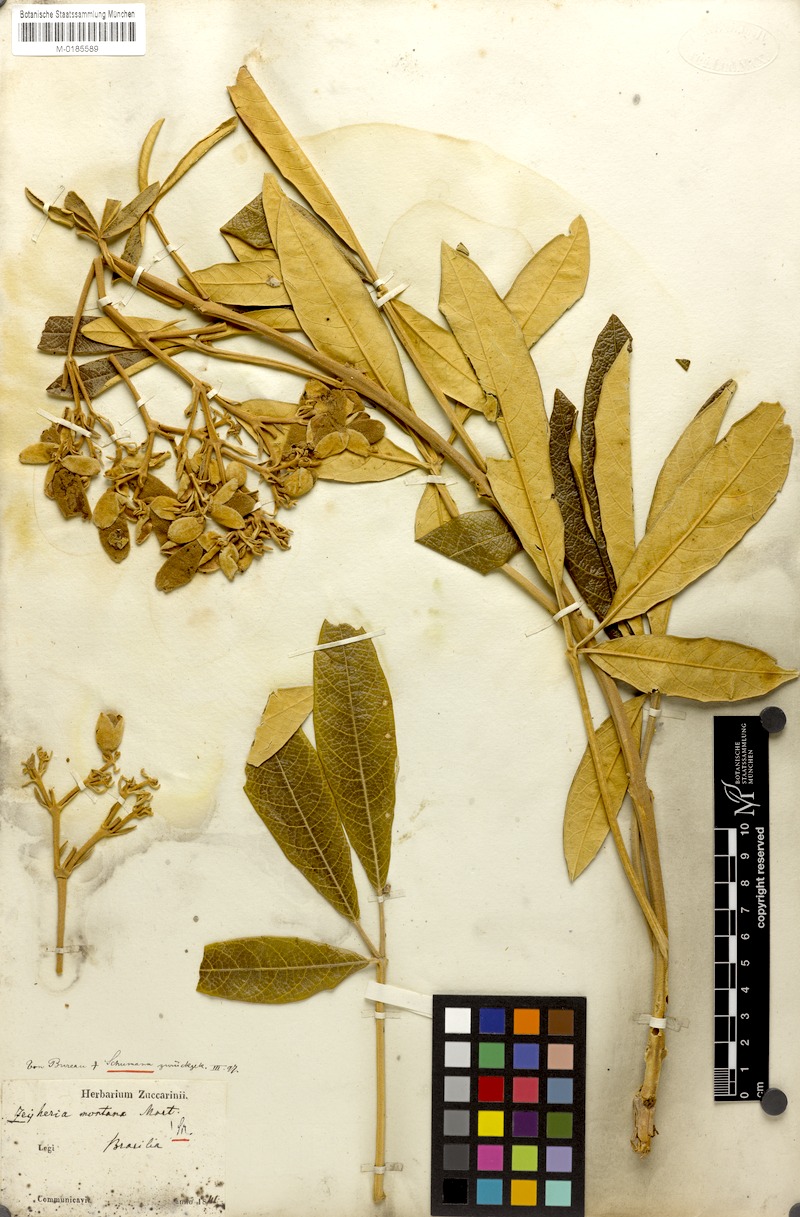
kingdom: Plantae
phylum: Tracheophyta
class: Magnoliopsida
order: Lamiales
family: Bignoniaceae
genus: Zeyheria
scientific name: Zeyheria montana
